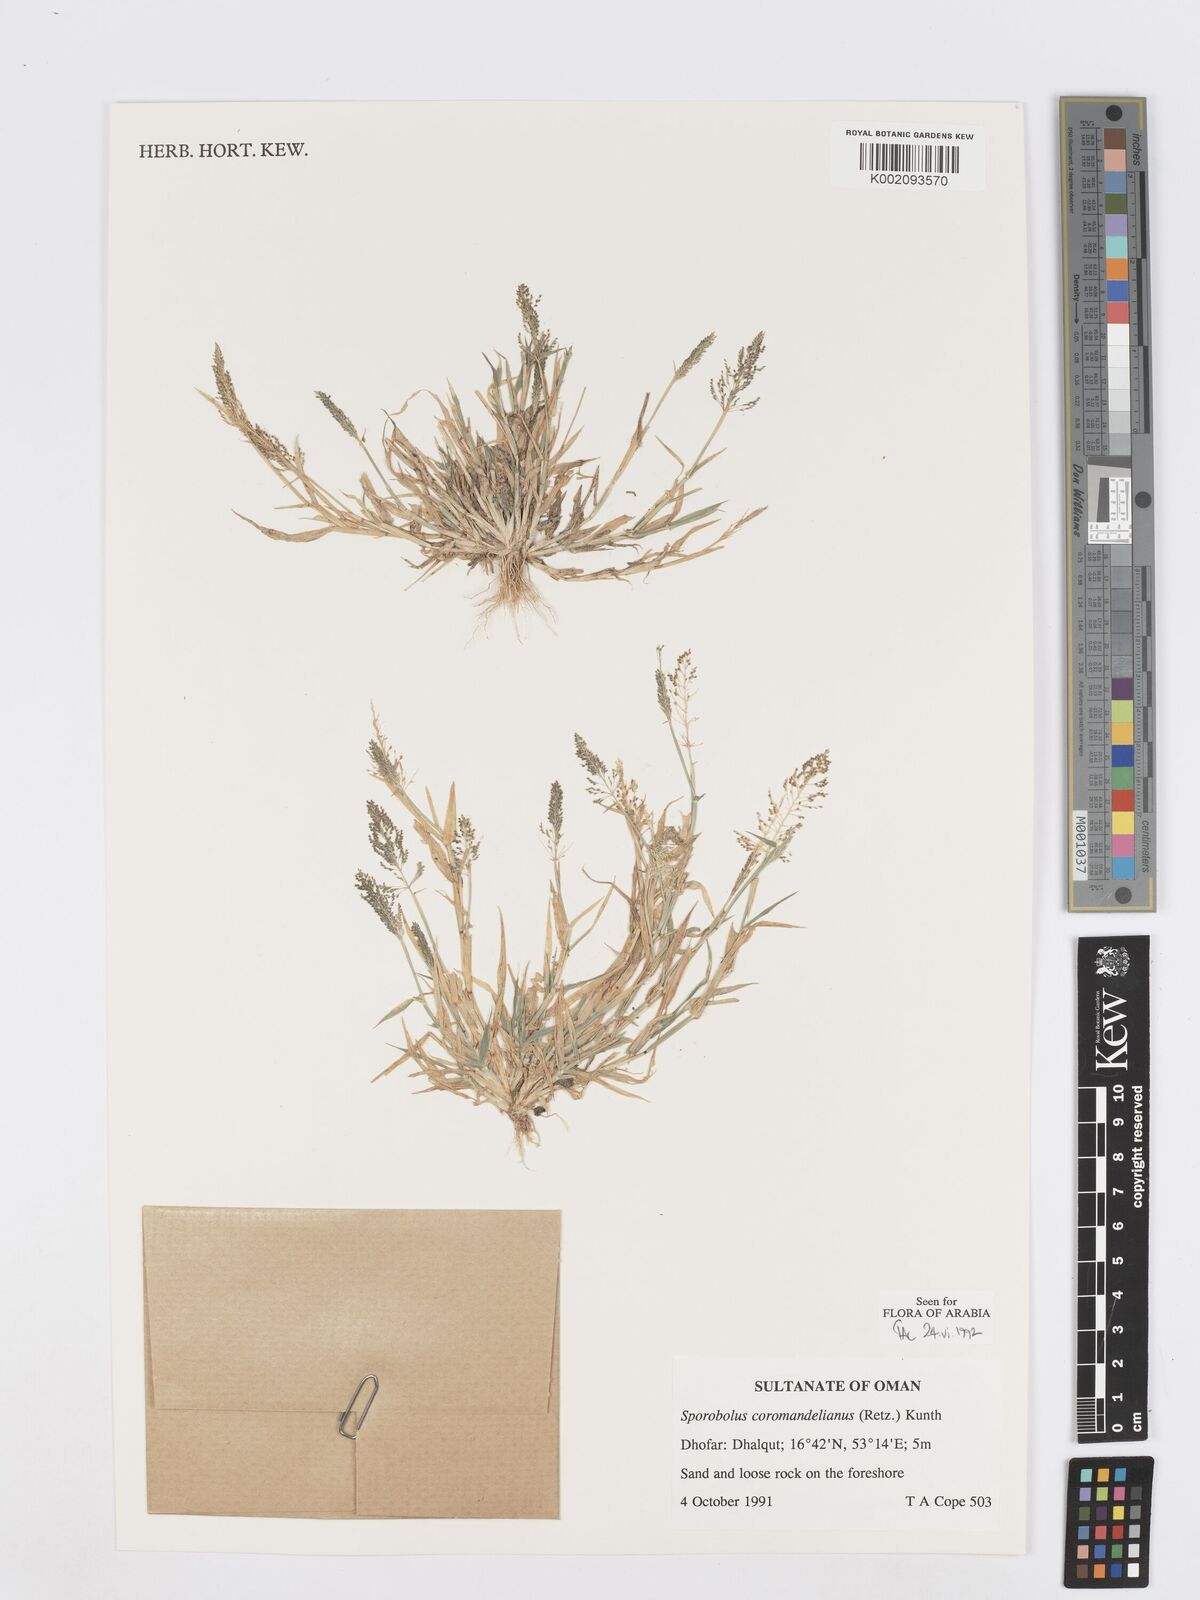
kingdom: Plantae
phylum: Tracheophyta
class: Liliopsida
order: Poales
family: Poaceae
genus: Sporobolus
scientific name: Sporobolus coromandelianus
